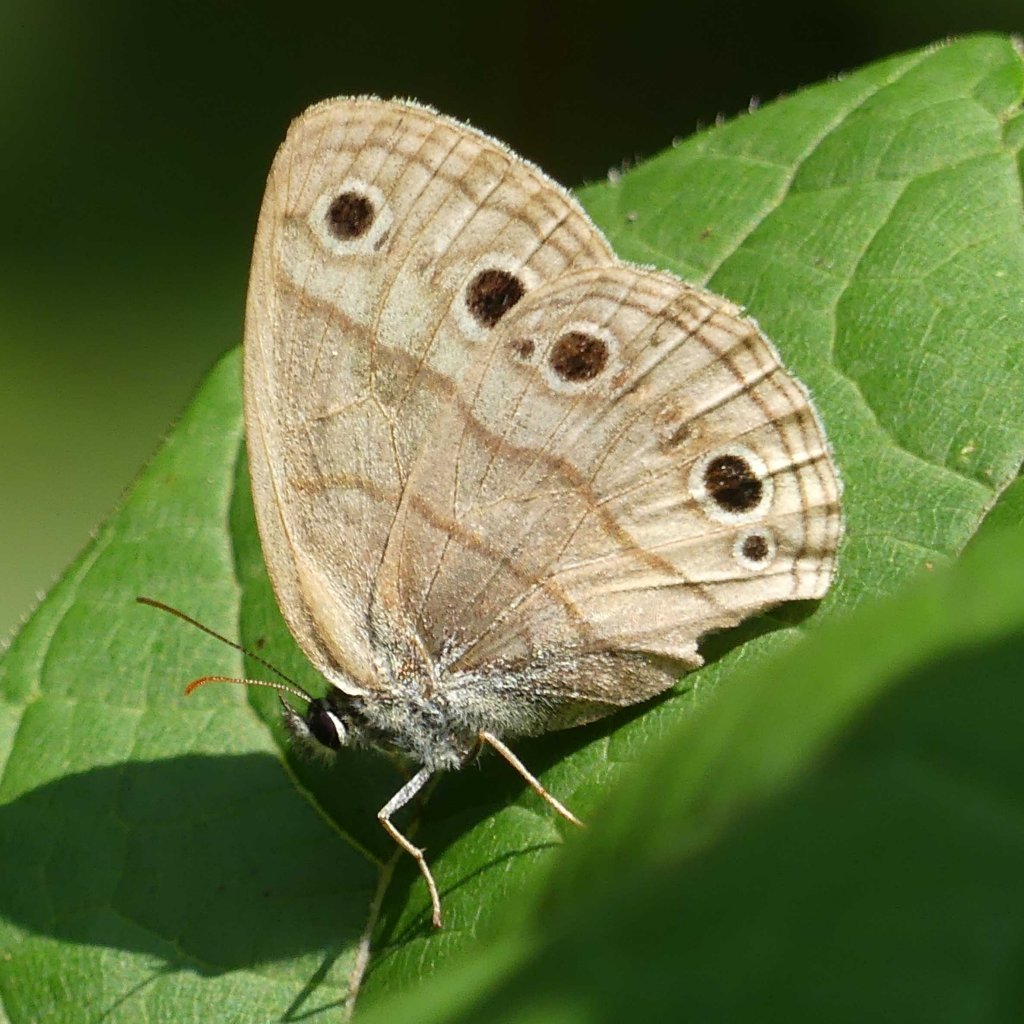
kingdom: Animalia
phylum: Arthropoda
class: Insecta
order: Lepidoptera
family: Nymphalidae
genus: Euptychia
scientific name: Euptychia cymela
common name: Little Wood Satyr
